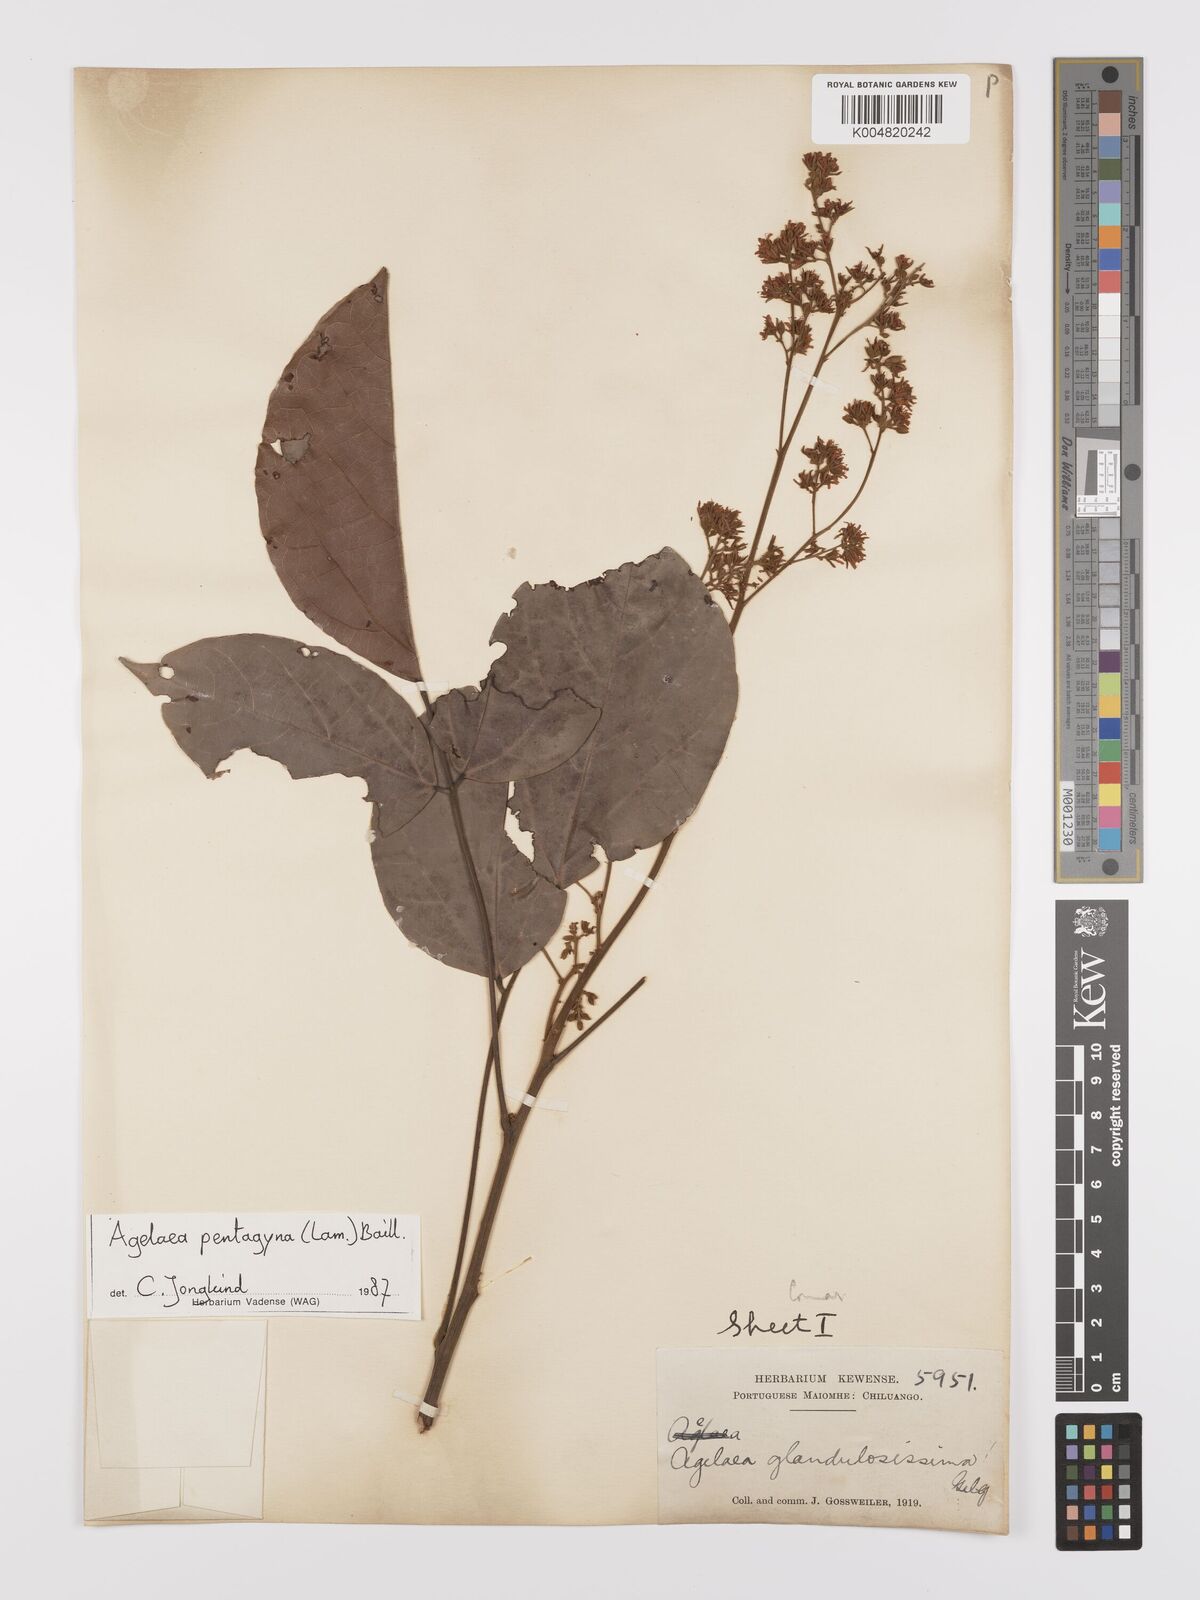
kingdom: Plantae
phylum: Tracheophyta
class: Magnoliopsida
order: Oxalidales
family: Connaraceae
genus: Agelaea
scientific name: Agelaea pentagyna
